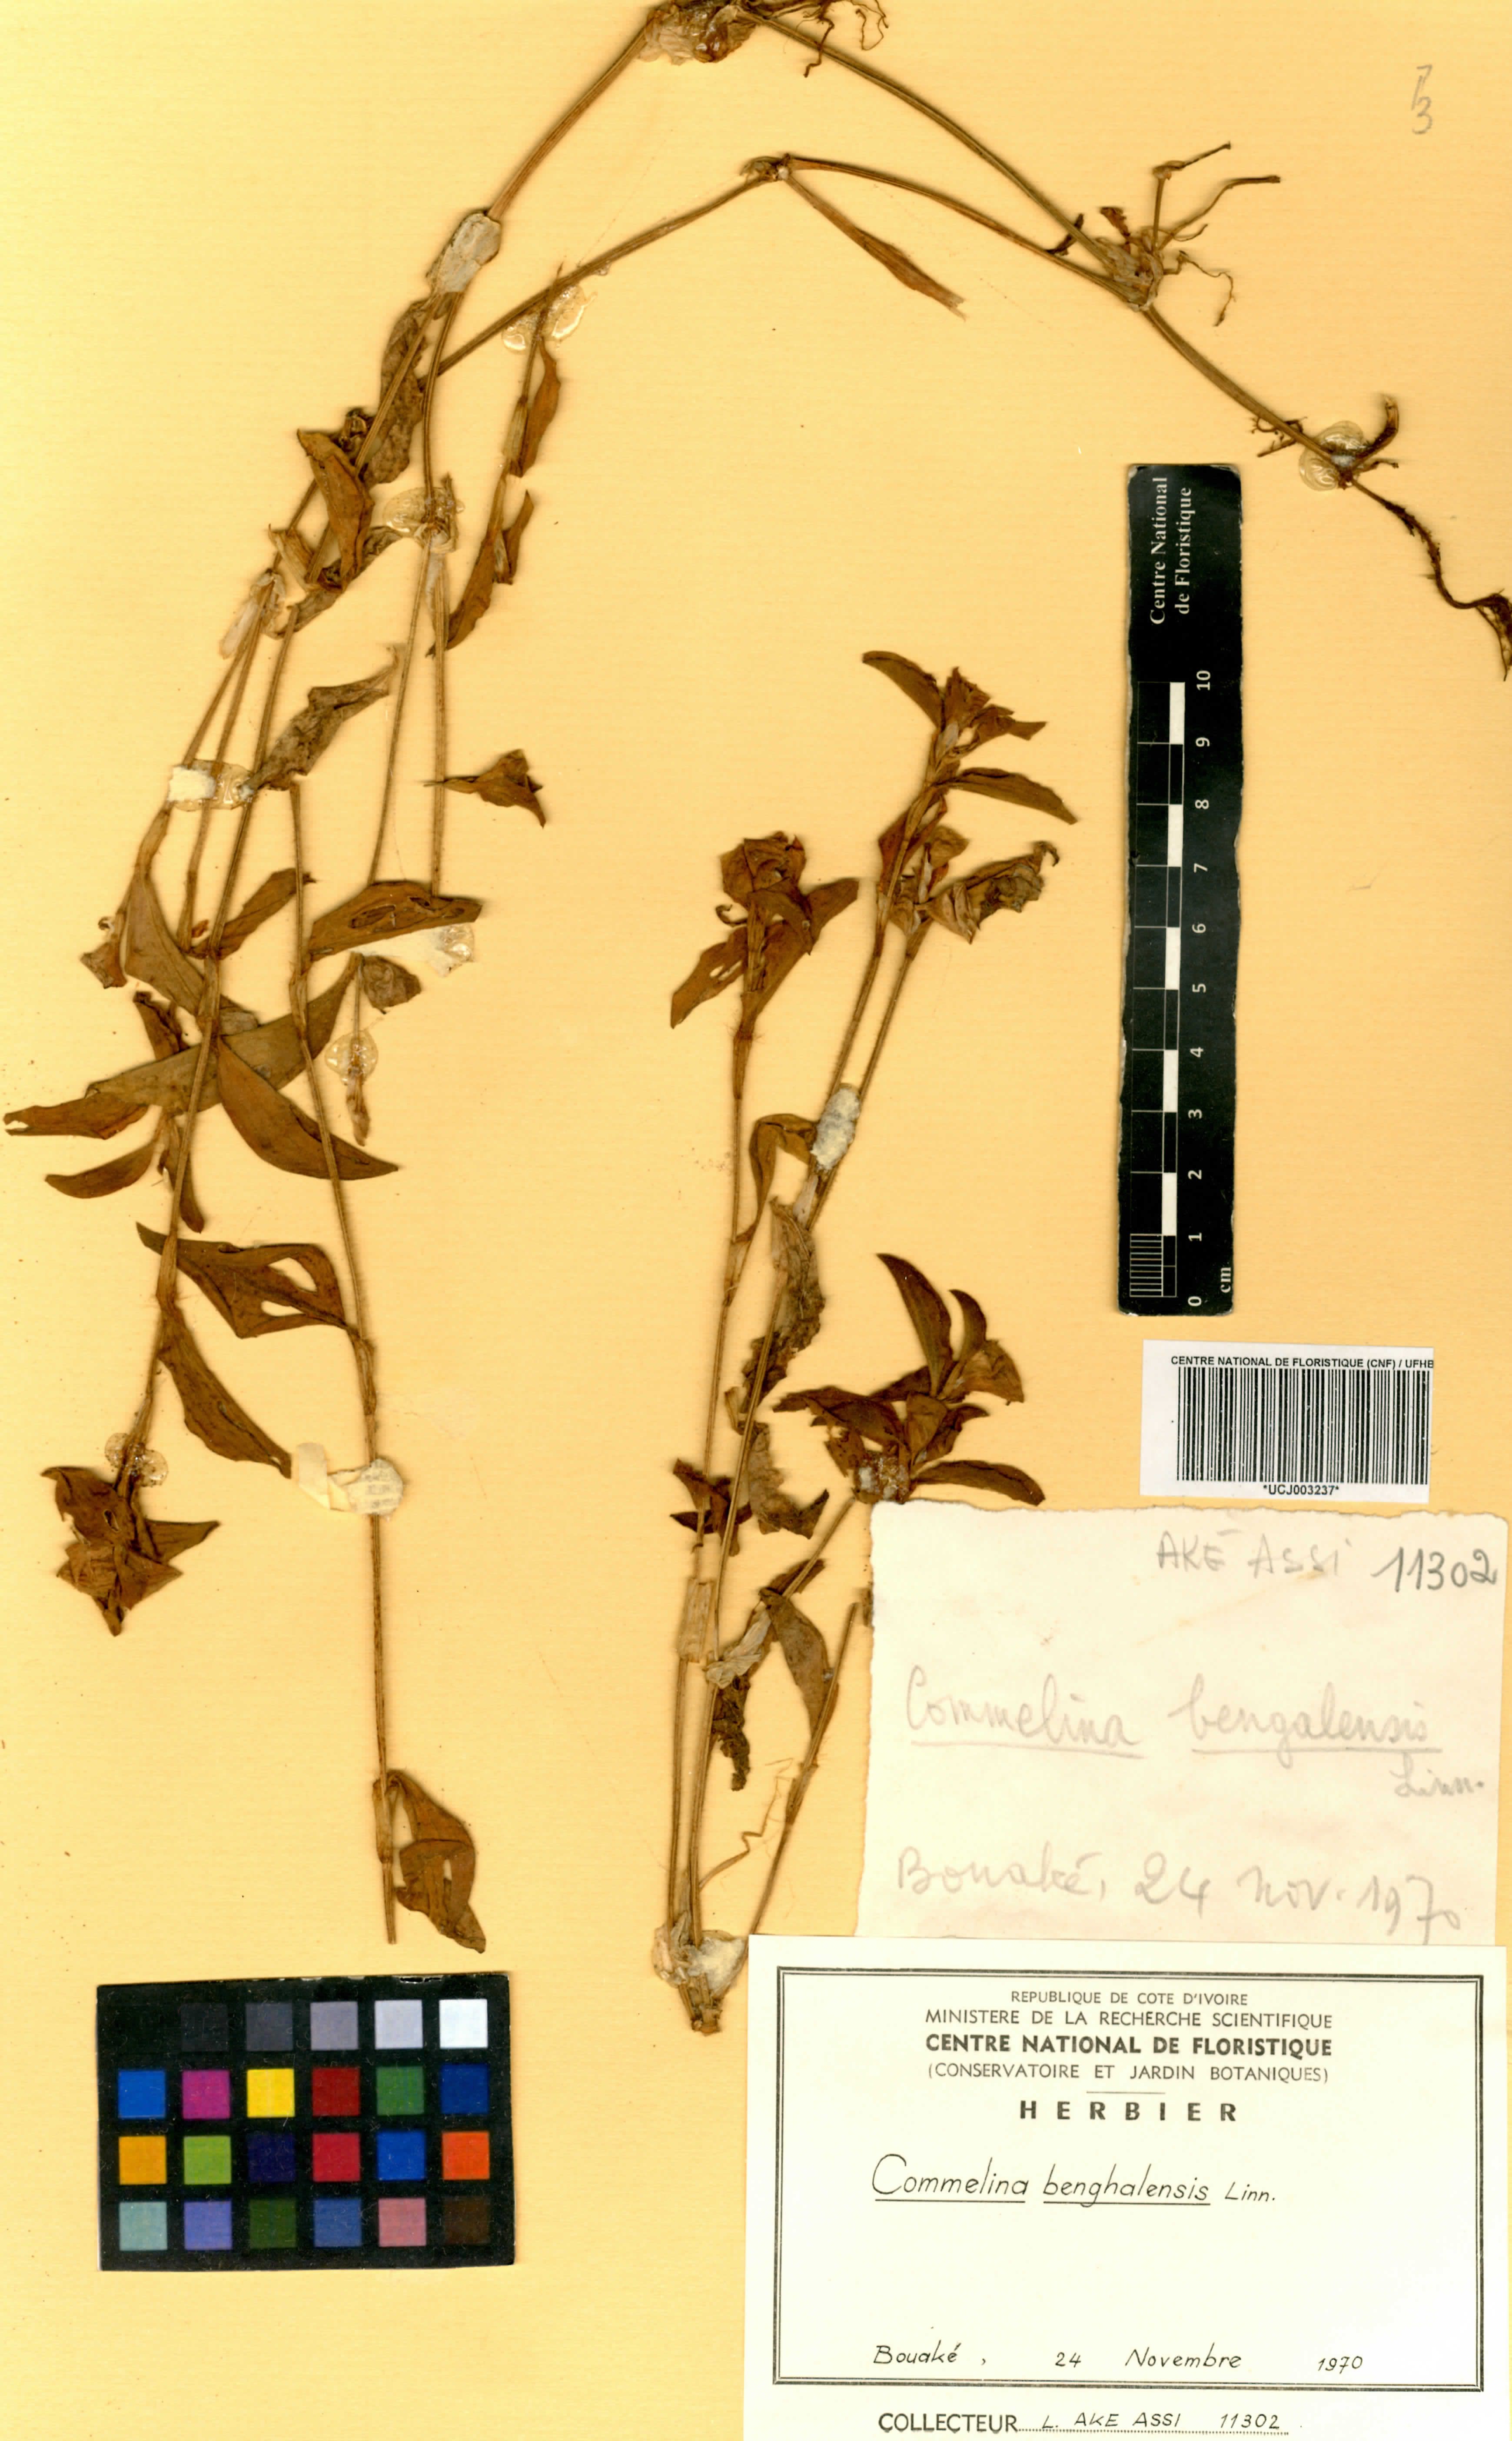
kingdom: Plantae
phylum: Tracheophyta
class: Liliopsida
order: Commelinales
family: Commelinaceae
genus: Commelina
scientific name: Commelina benghalensis
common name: Jio
